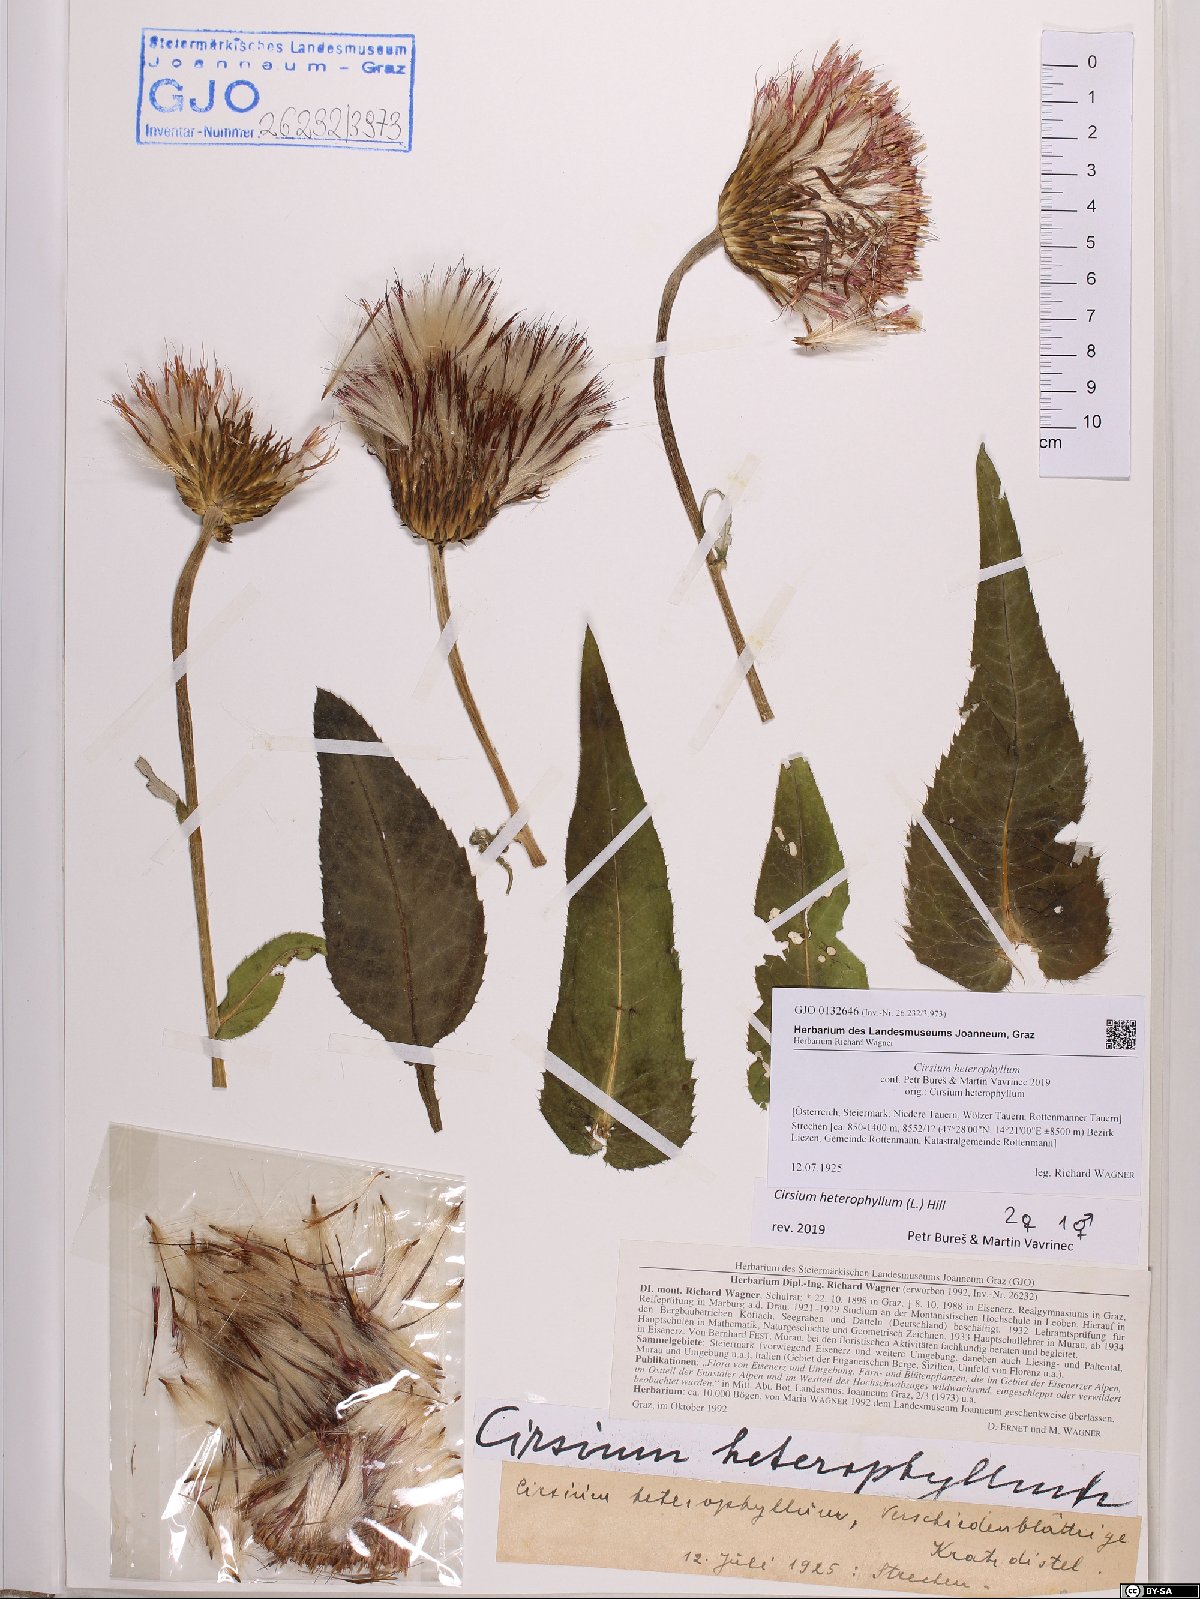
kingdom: Plantae
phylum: Tracheophyta
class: Magnoliopsida
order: Asterales
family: Asteraceae
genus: Cirsium
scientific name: Cirsium heterophyllum
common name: Melancholy thistle
